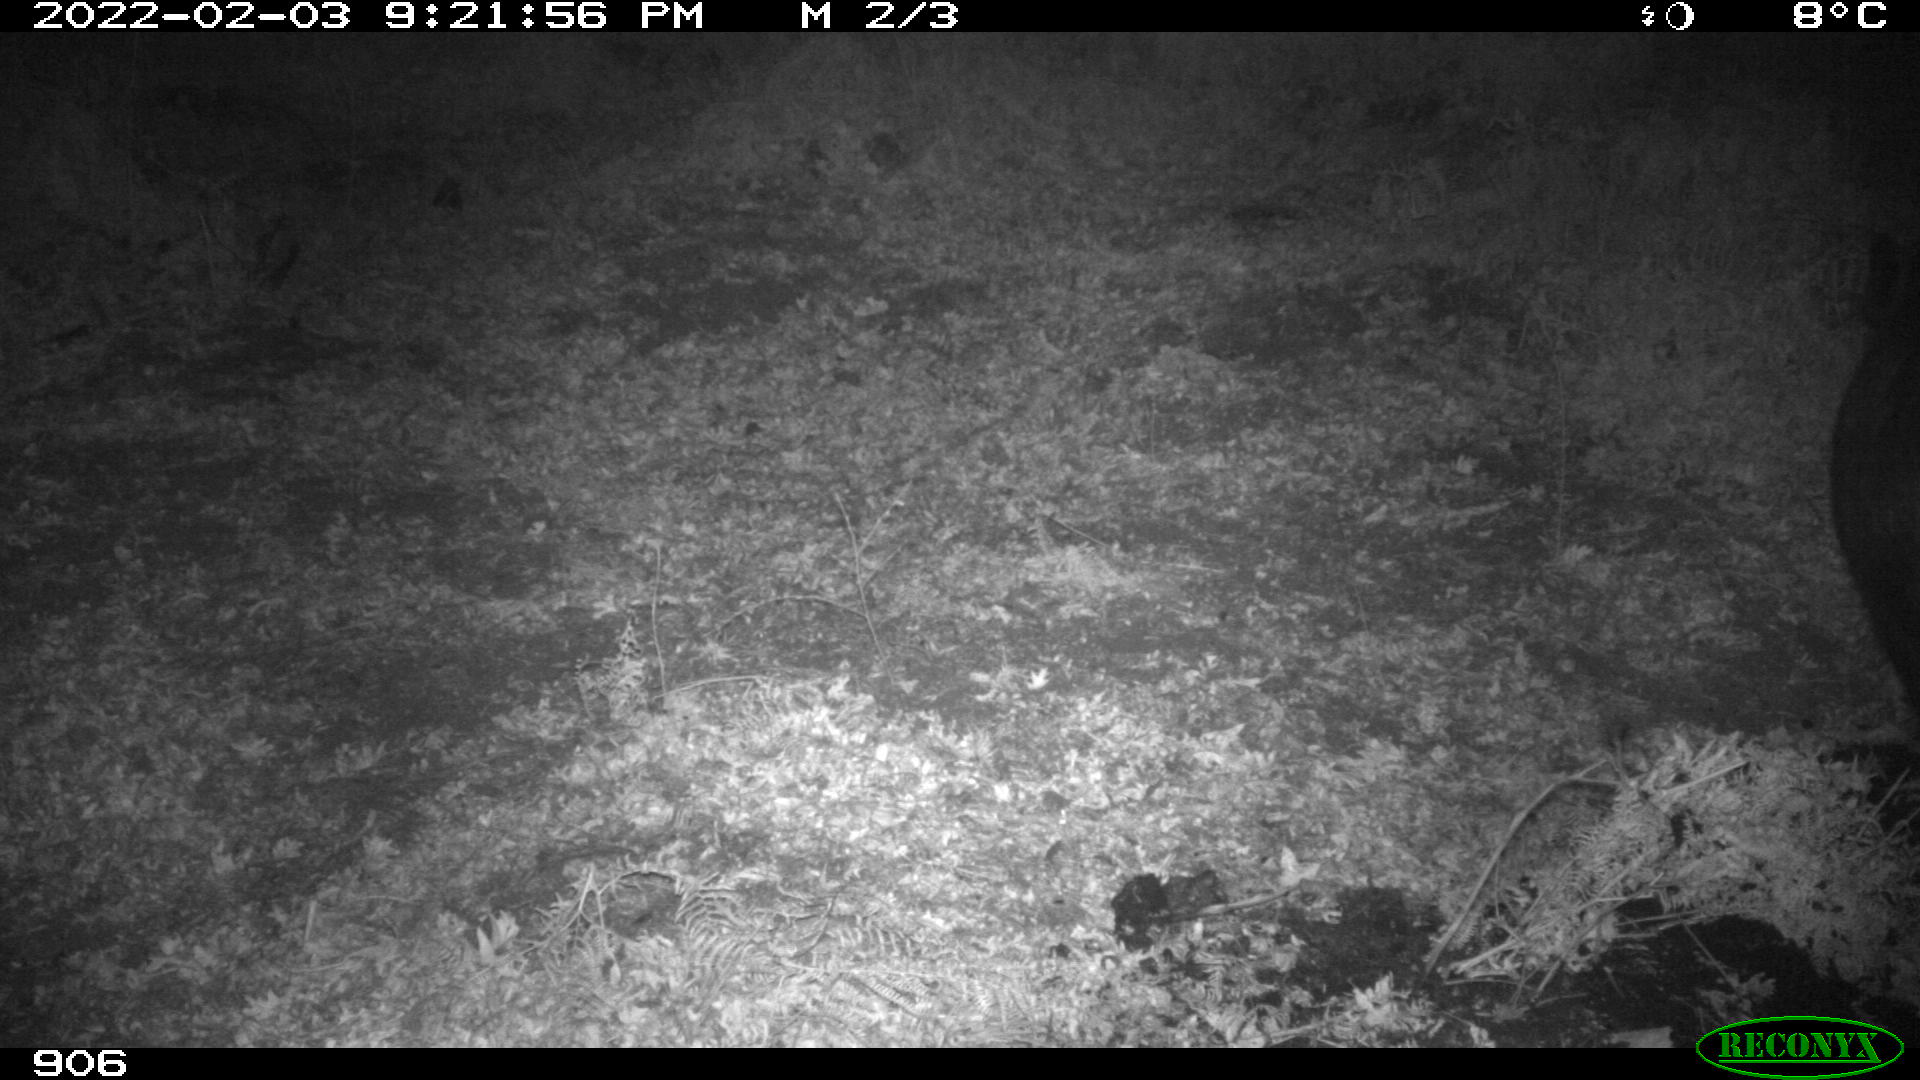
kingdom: Animalia
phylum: Chordata
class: Mammalia
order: Artiodactyla
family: Suidae
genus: Sus
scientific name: Sus scrofa
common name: Wild boar
